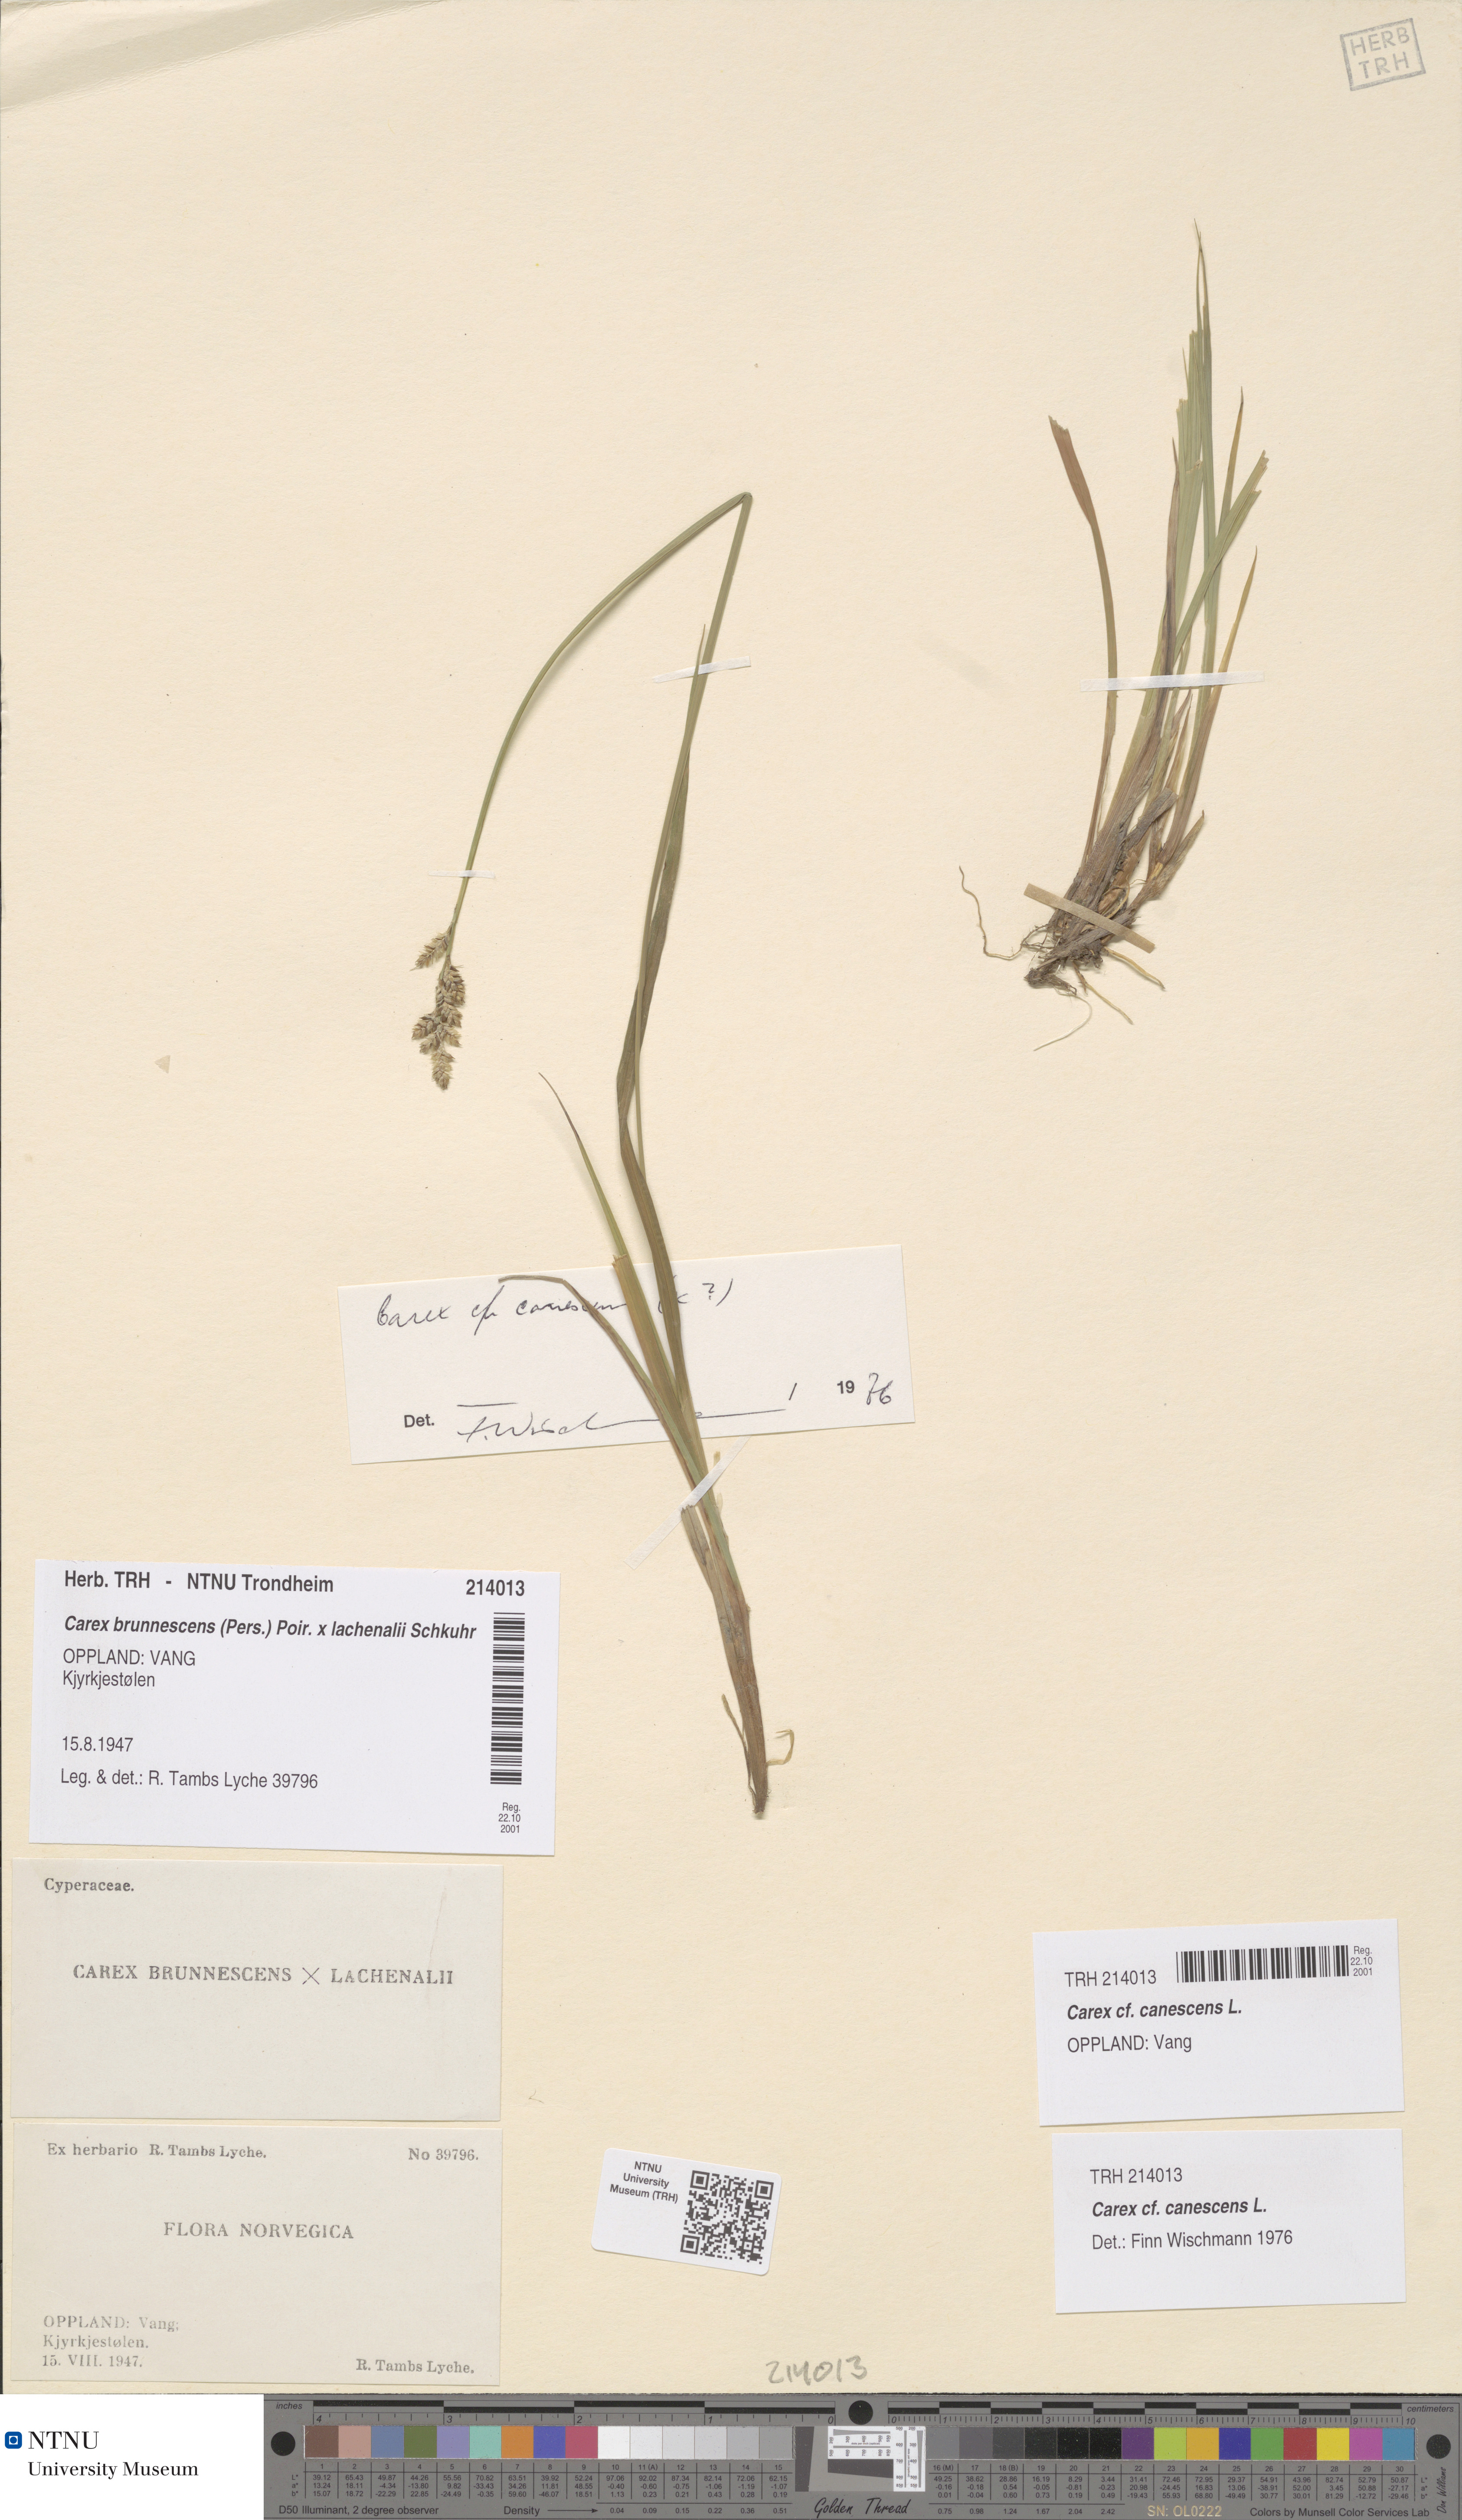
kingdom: Plantae
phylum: Tracheophyta
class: Liliopsida
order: Poales
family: Cyperaceae
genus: Carex
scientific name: Carex canescens
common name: White sedge
